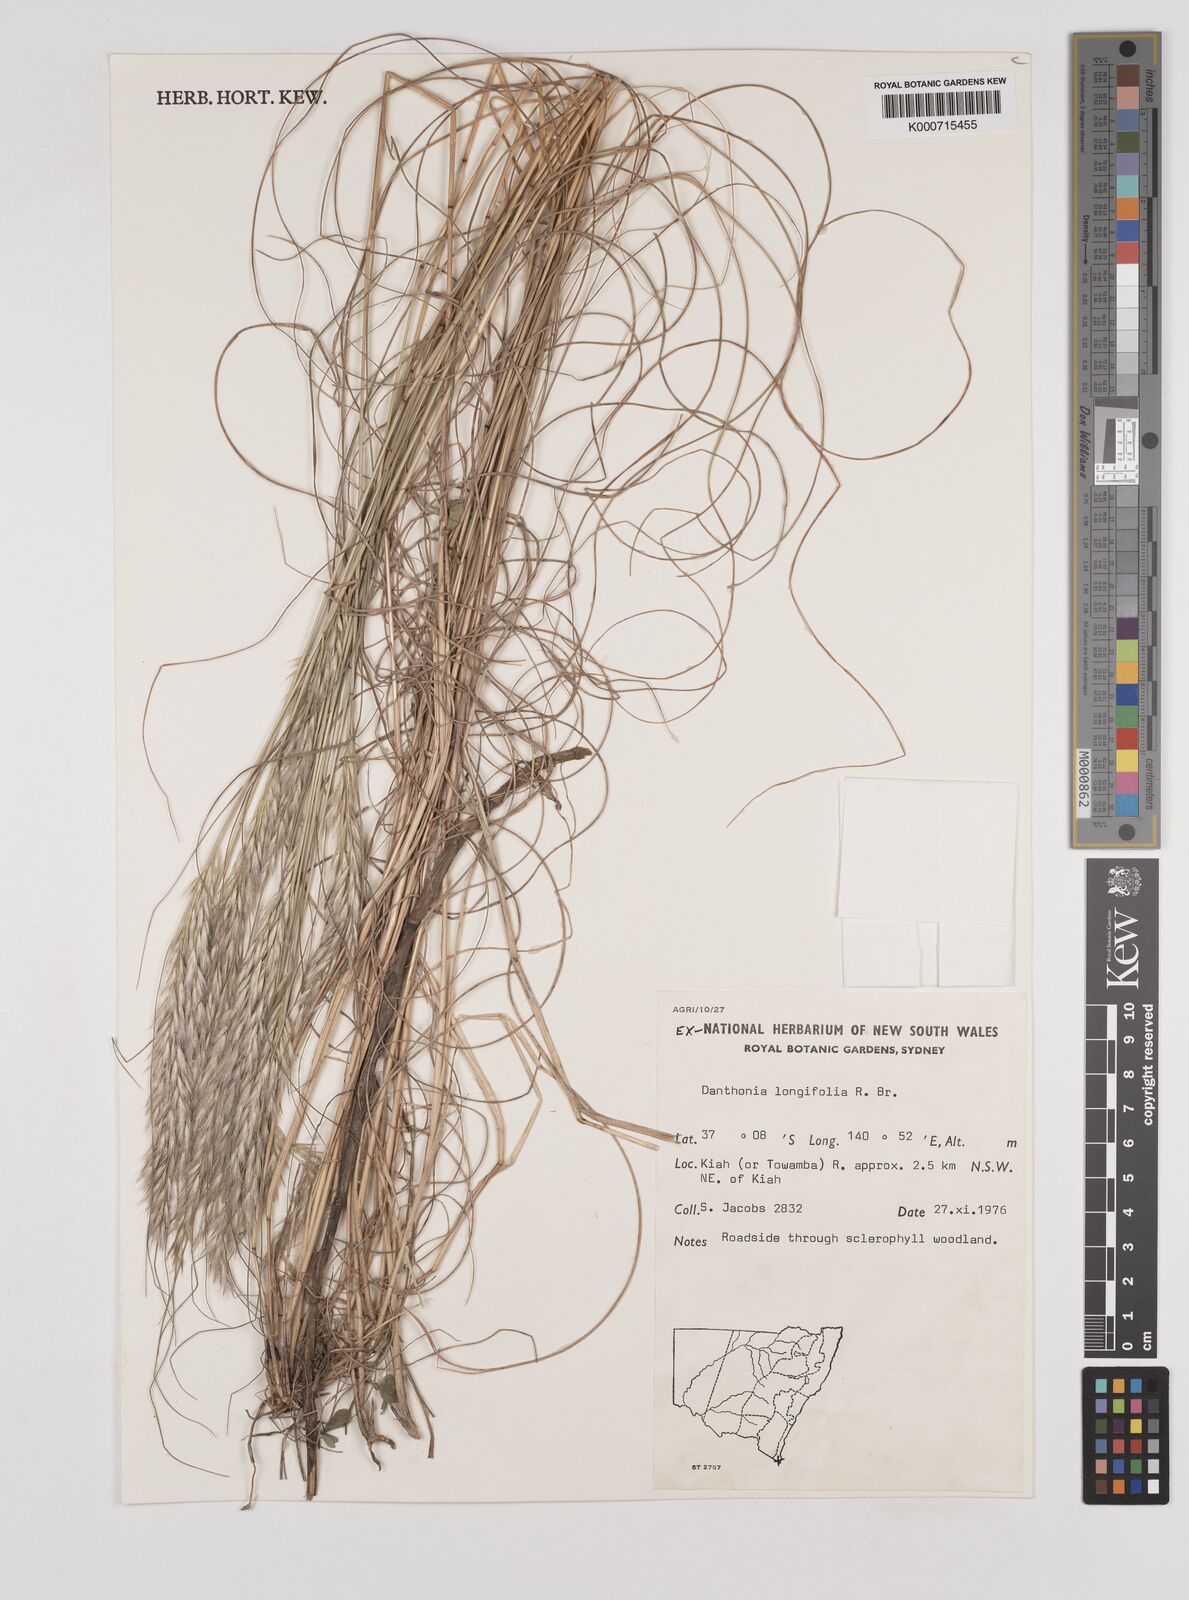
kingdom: Plantae
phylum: Tracheophyta
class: Liliopsida
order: Poales
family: Poaceae
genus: Rytidosperma
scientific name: Rytidosperma longifolium
